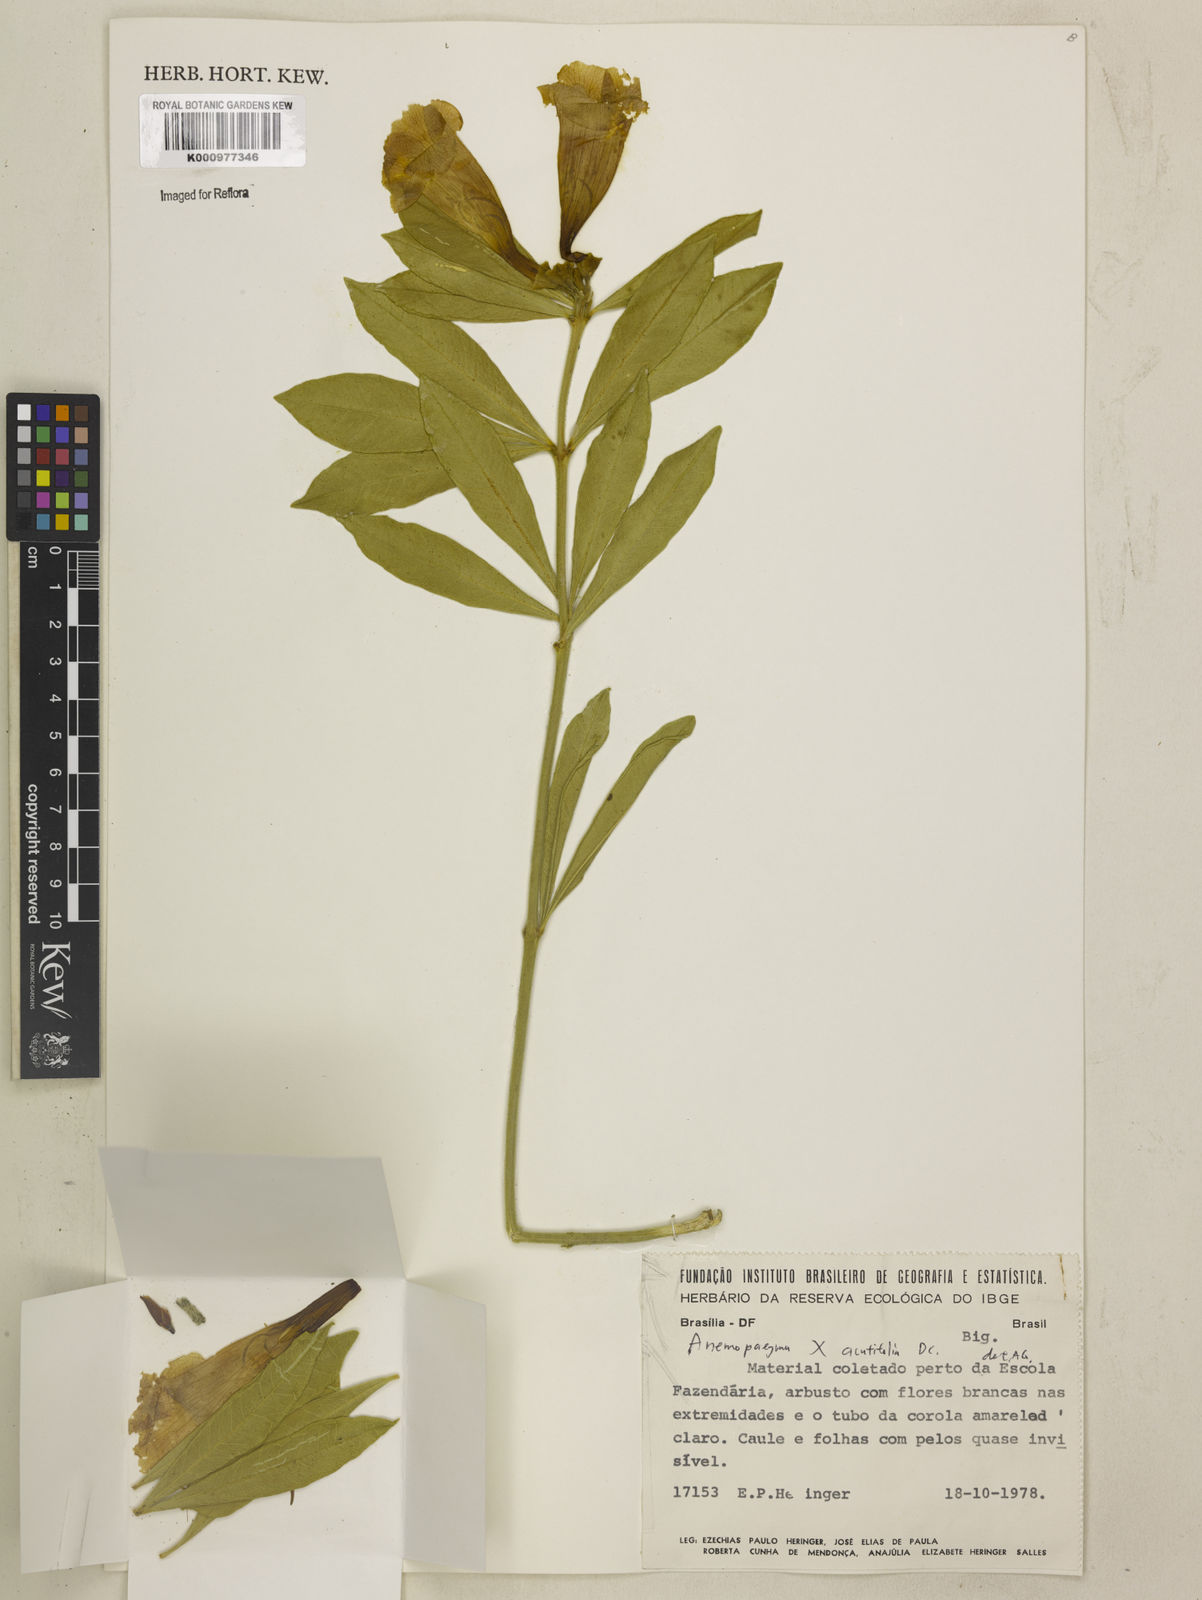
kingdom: Plantae
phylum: Tracheophyta
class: Magnoliopsida
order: Lamiales
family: Bignoniaceae
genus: Anemopaegma
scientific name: Anemopaegma
